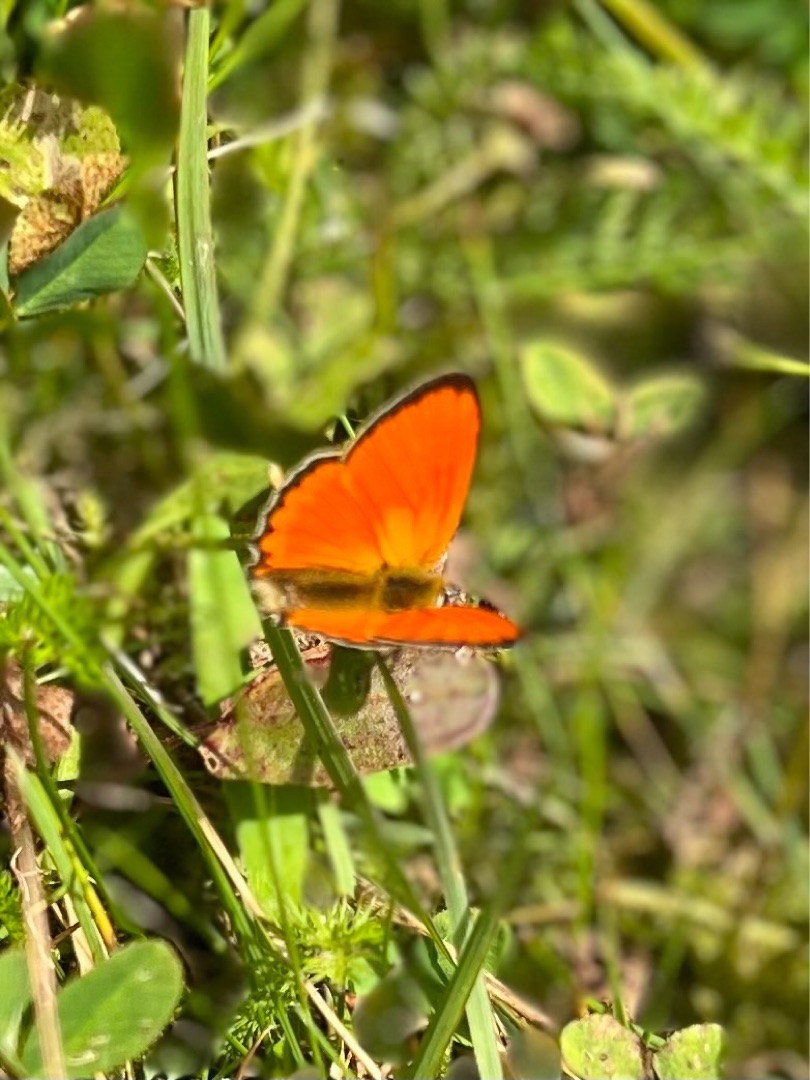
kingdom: Animalia
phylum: Arthropoda
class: Insecta
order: Lepidoptera
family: Lycaenidae
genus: Lycaena
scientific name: Lycaena virgaureae
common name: Dukatsommerfugl
